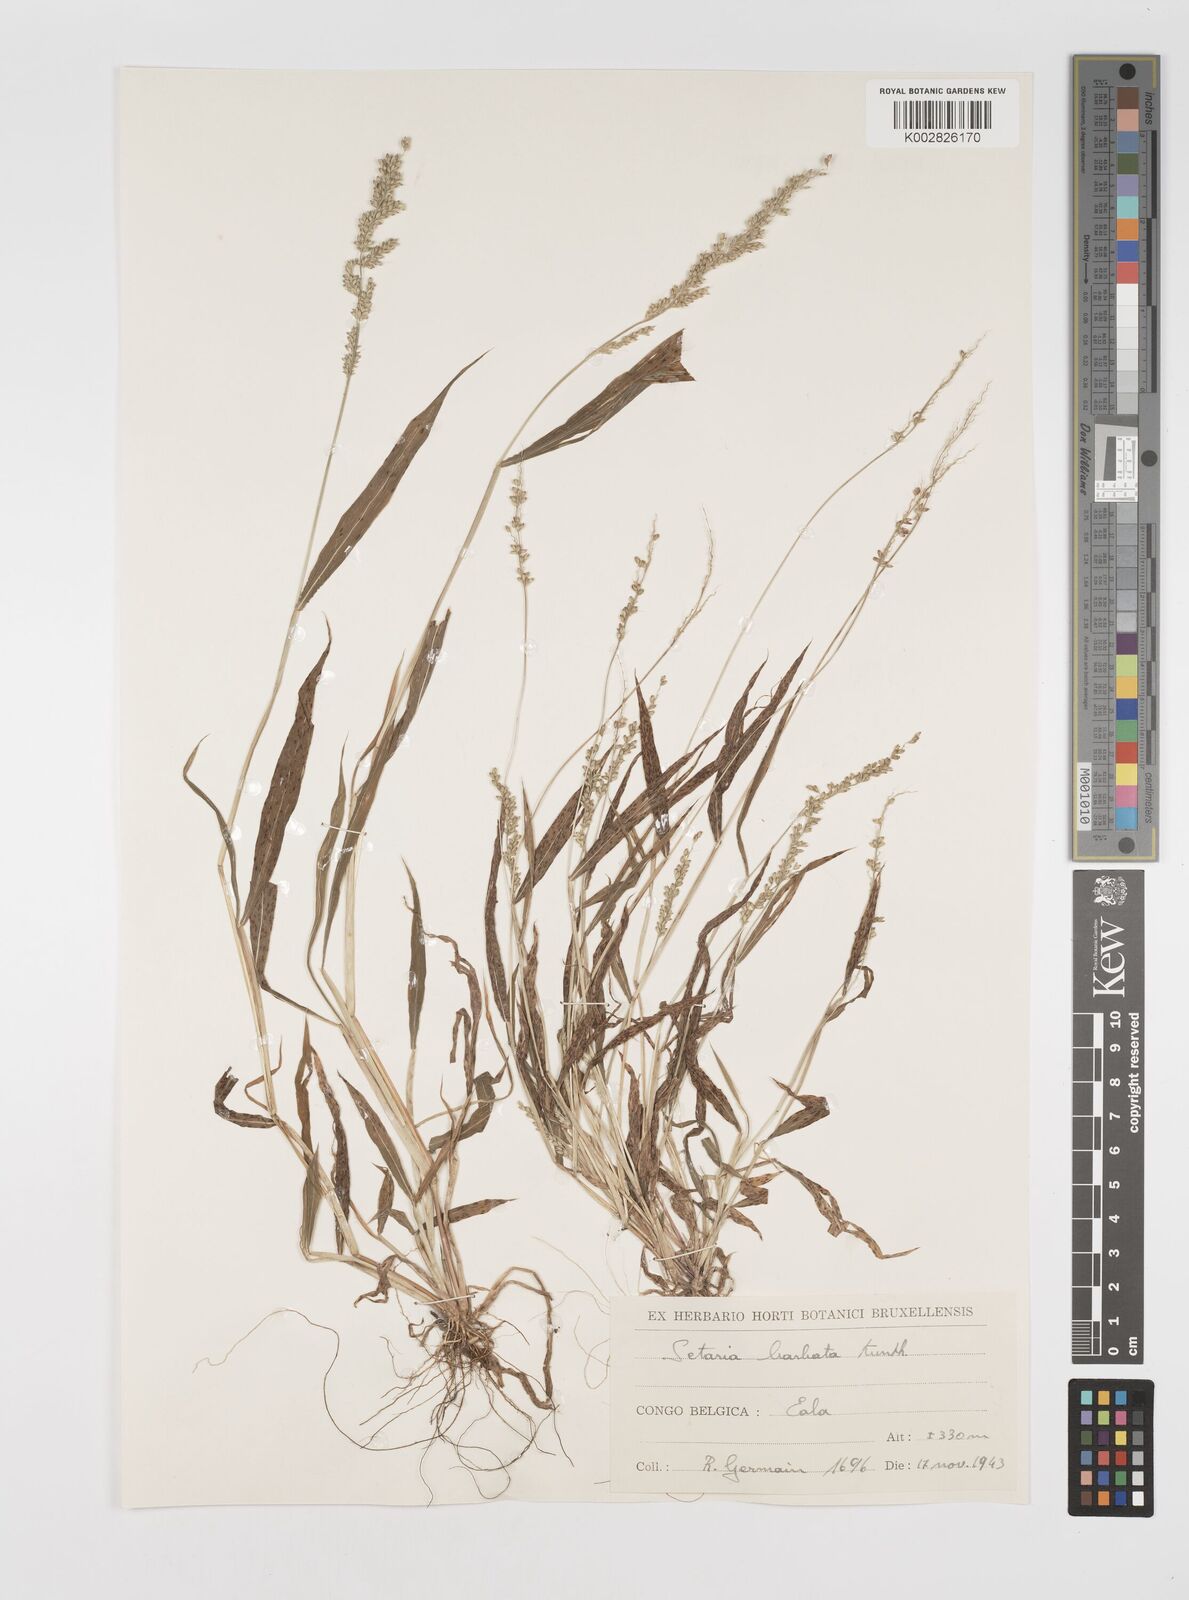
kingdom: Plantae
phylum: Tracheophyta
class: Liliopsida
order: Poales
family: Poaceae
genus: Setaria
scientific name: Setaria barbata
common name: East indian bristlegrass
